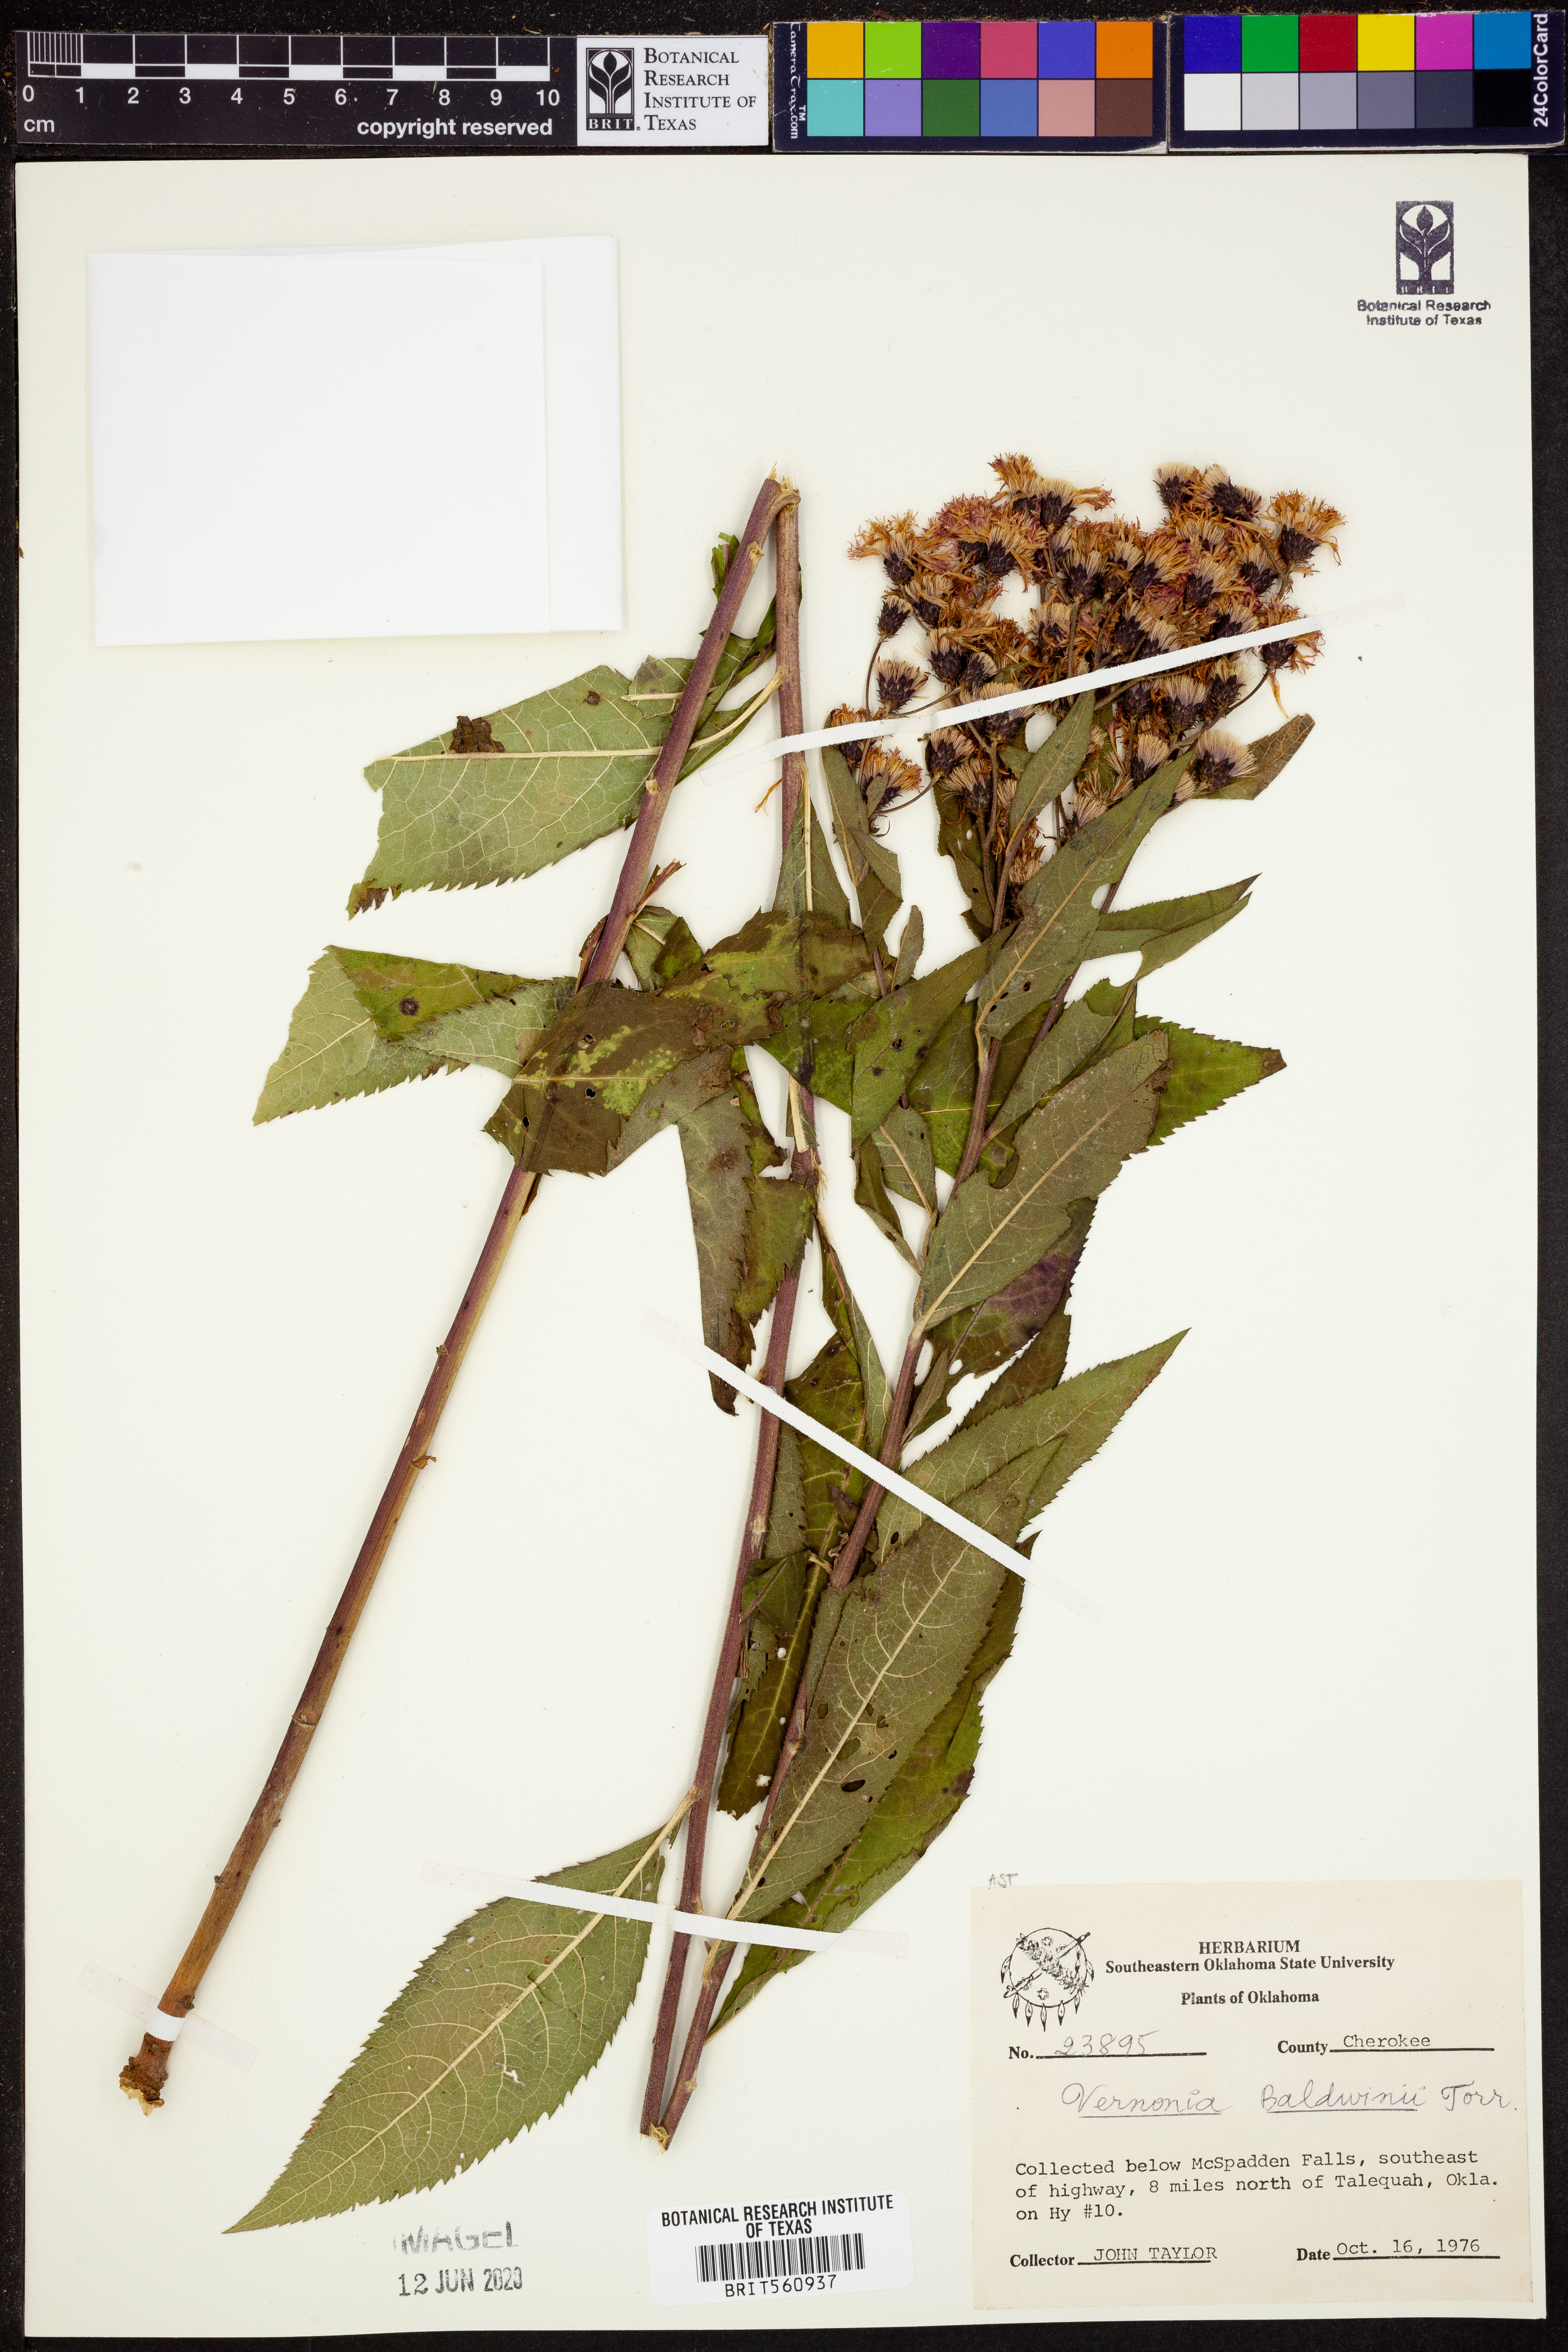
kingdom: Plantae
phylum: Tracheophyta
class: Magnoliopsida
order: Asterales
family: Asteraceae
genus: Vernonia
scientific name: Vernonia baldwinii
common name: Western ironweed
